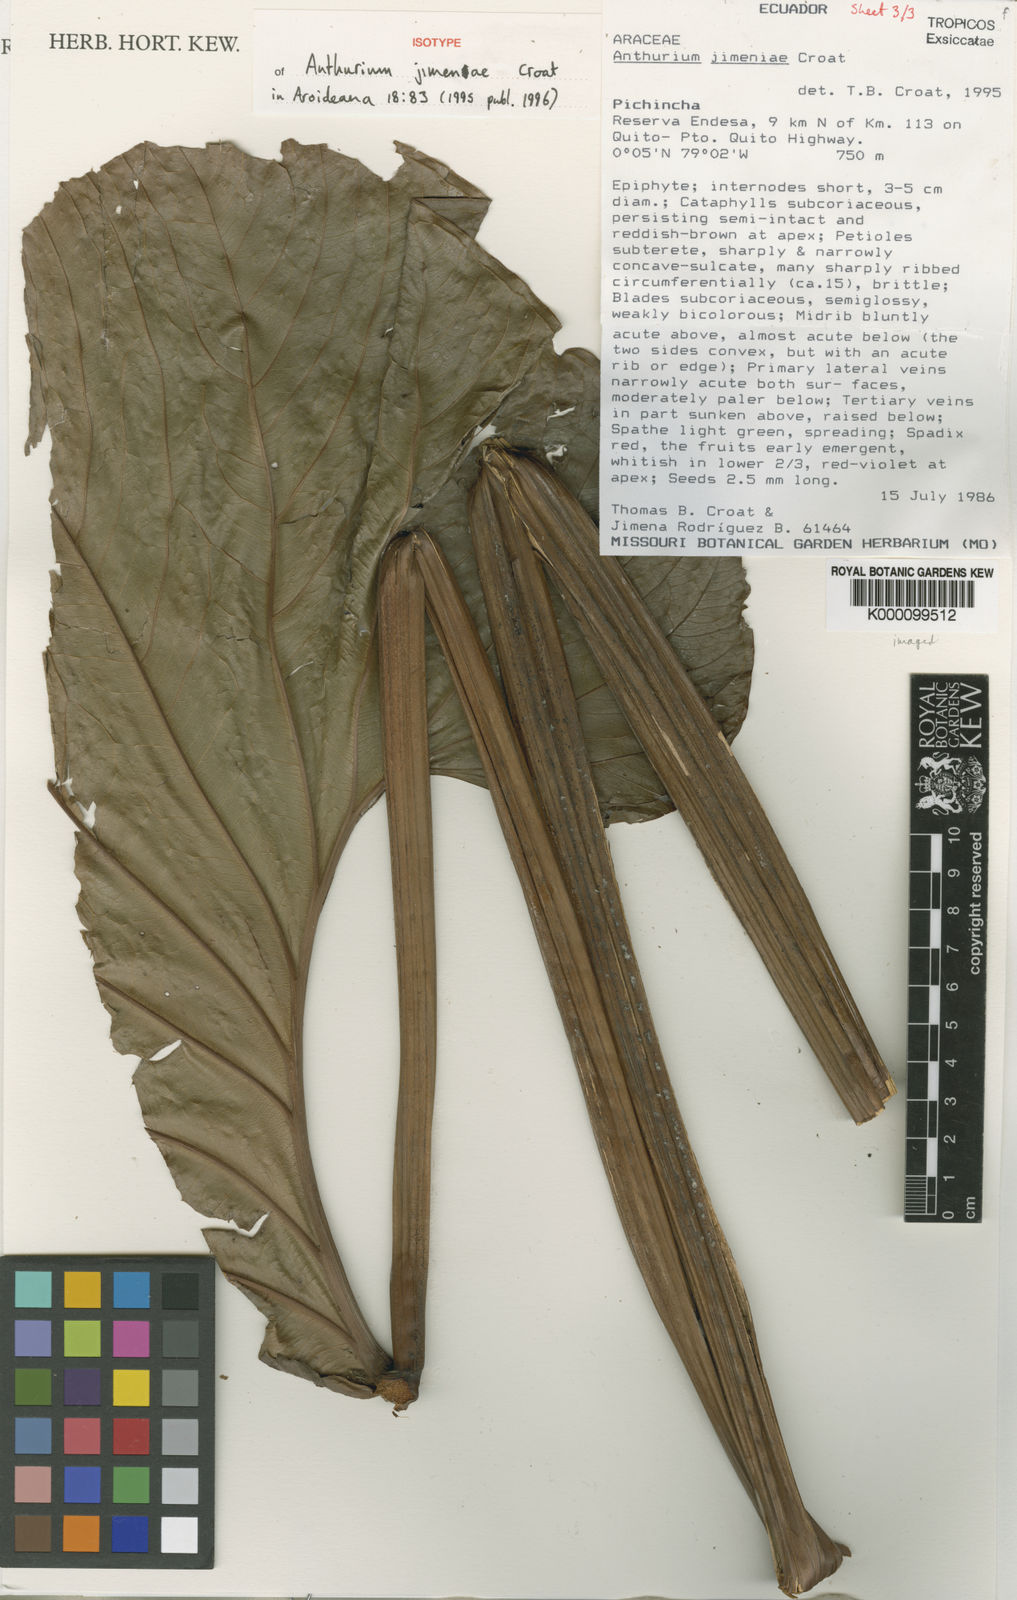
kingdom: Plantae
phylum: Tracheophyta
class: Liliopsida
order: Alismatales
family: Araceae
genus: Anthurium
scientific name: Anthurium jimenae
